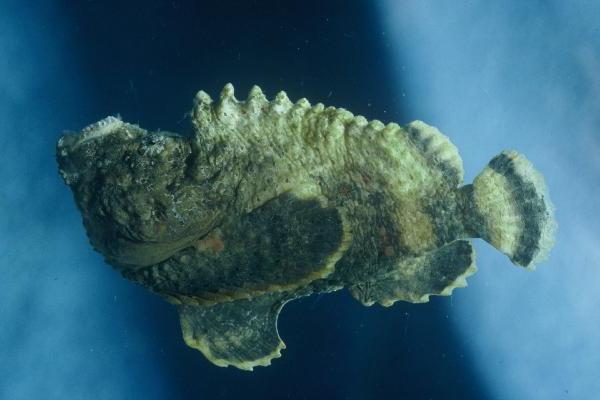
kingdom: Animalia
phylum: Chordata
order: Scorpaeniformes
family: Synanceiidae
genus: Synanceia
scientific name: Synanceia verrucosa
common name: Stonefish
